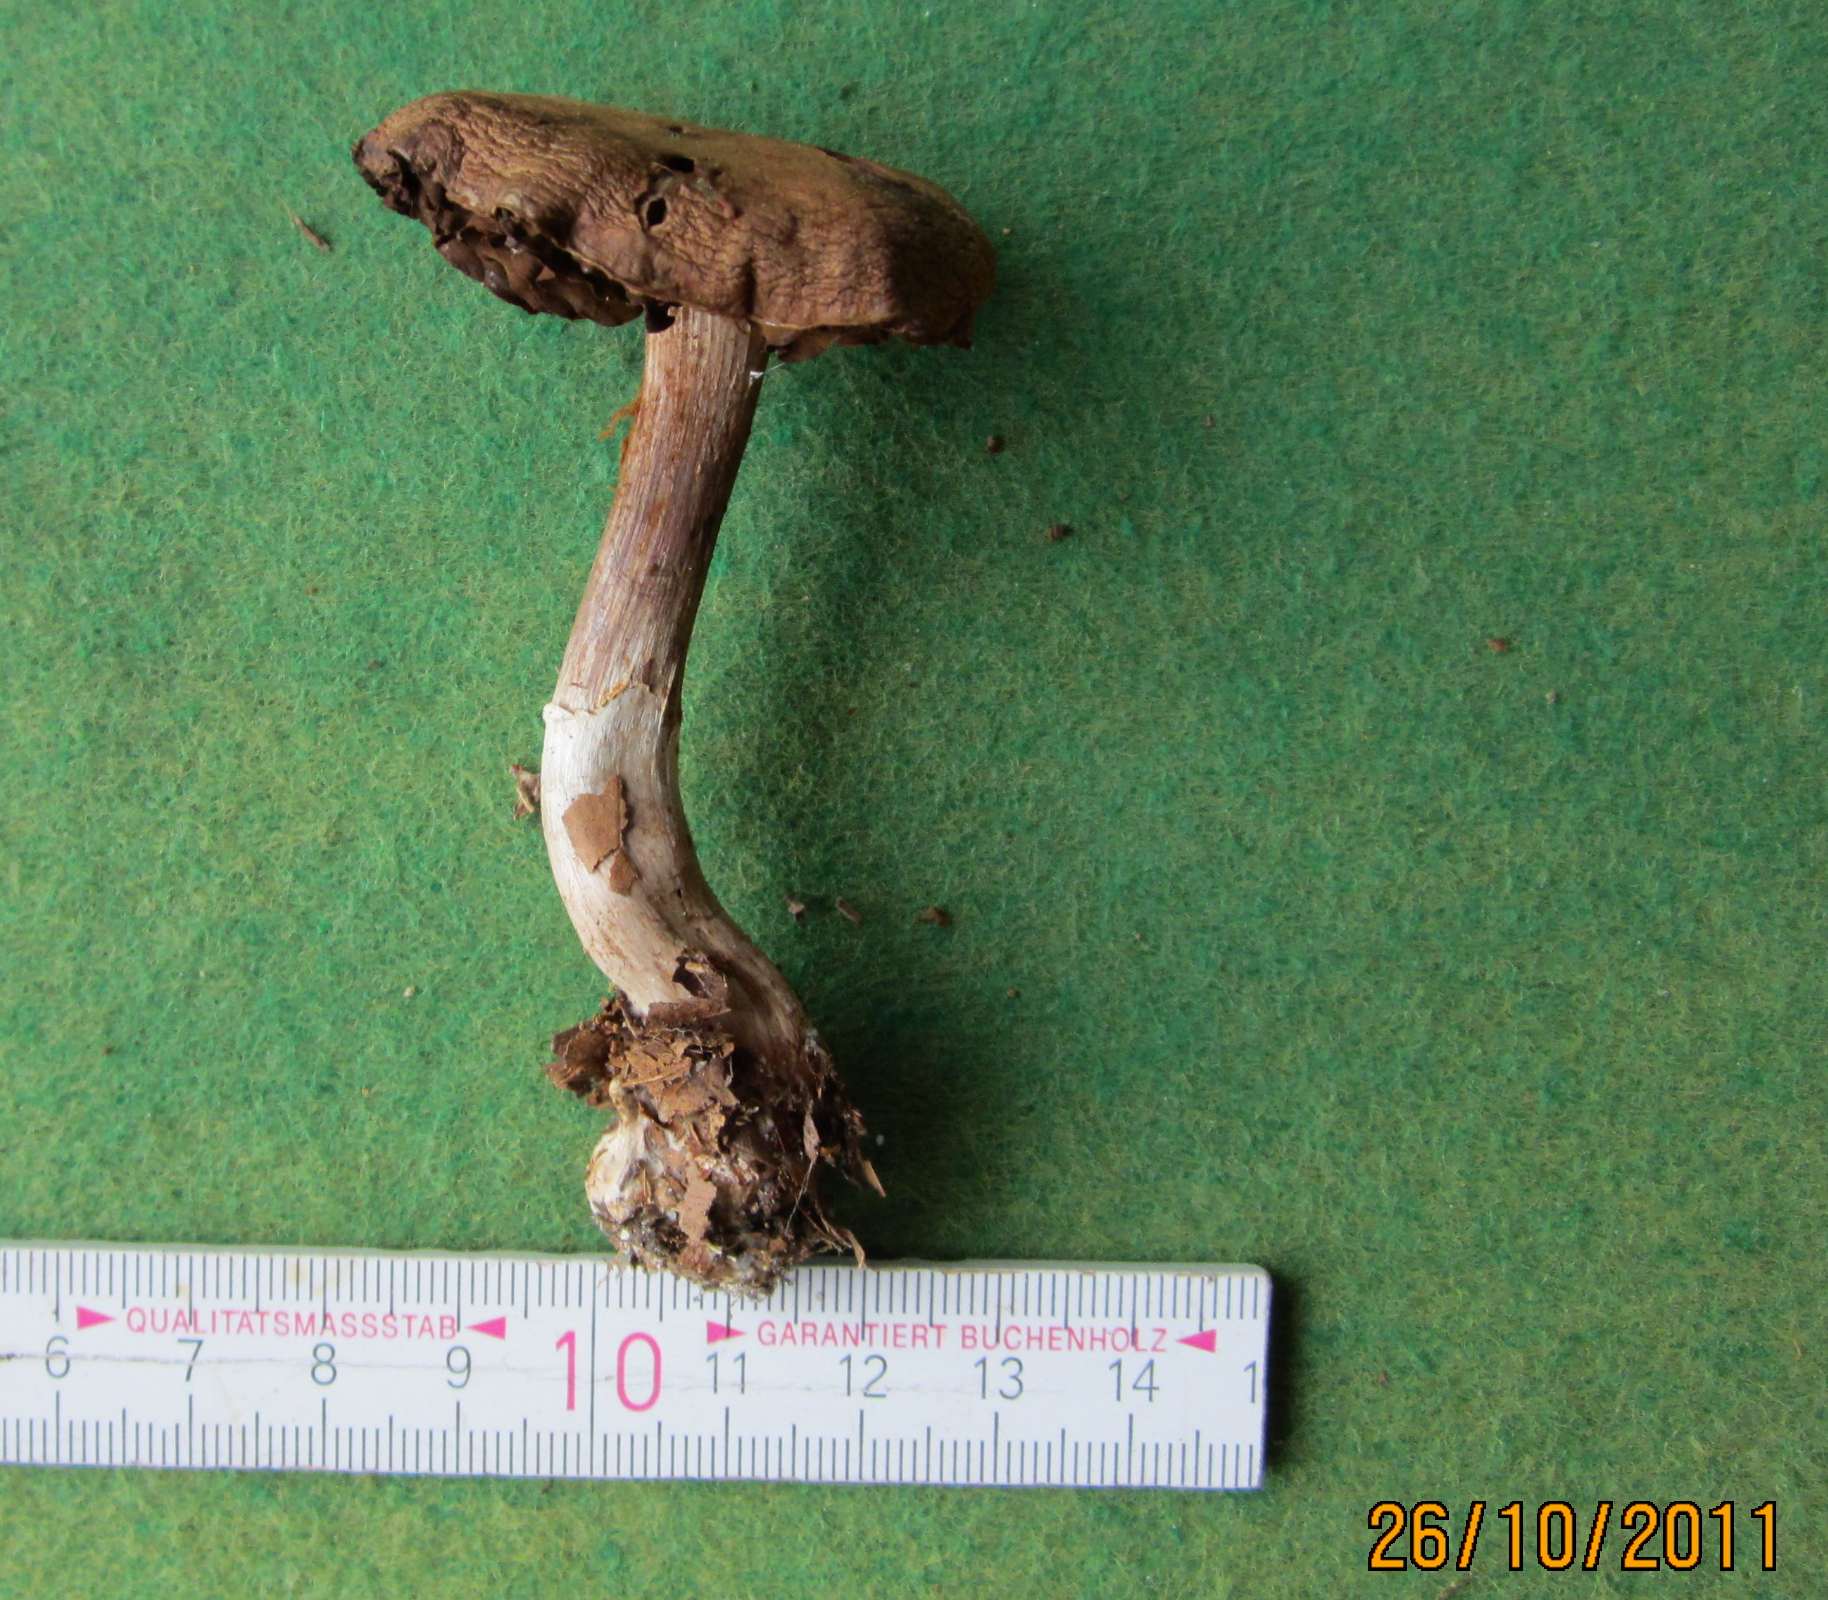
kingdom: Fungi
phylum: Basidiomycota
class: Agaricomycetes
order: Agaricales
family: Cortinariaceae
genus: Cortinarius
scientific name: Cortinarius torvus
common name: champignonagtig slørhat
